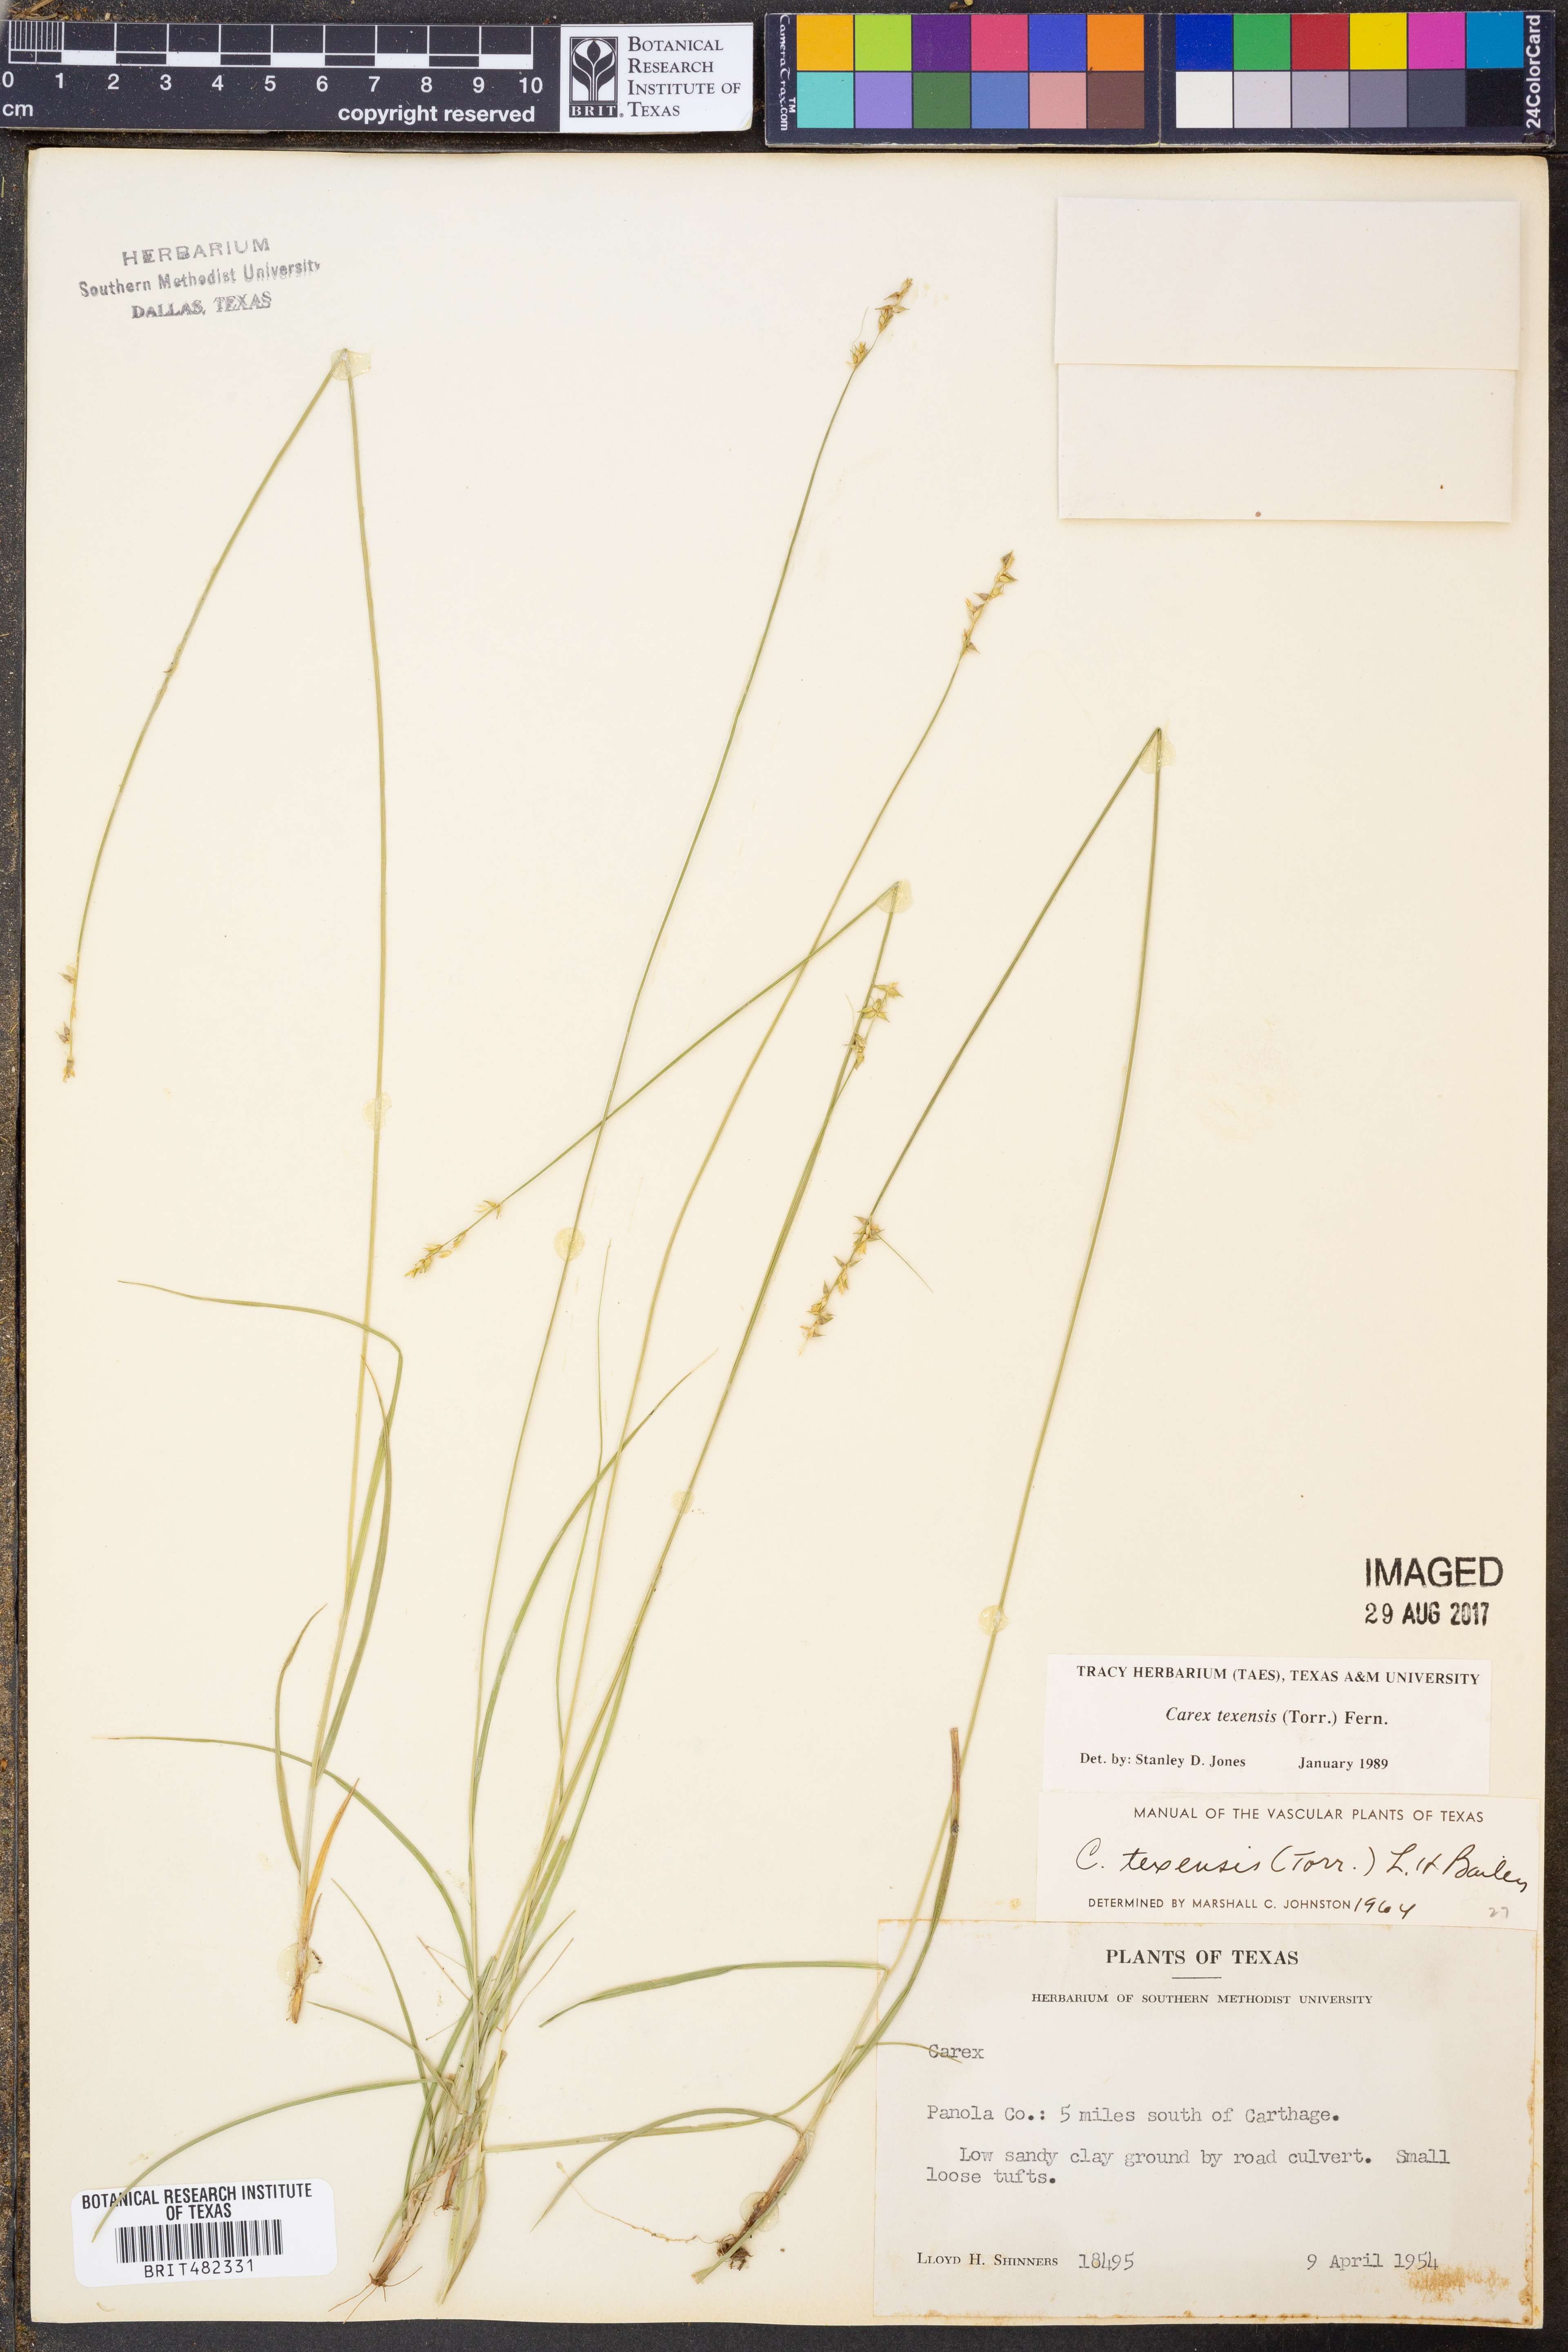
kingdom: Plantae
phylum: Tracheophyta
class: Liliopsida
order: Poales
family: Cyperaceae
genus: Carex
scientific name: Carex texensis
